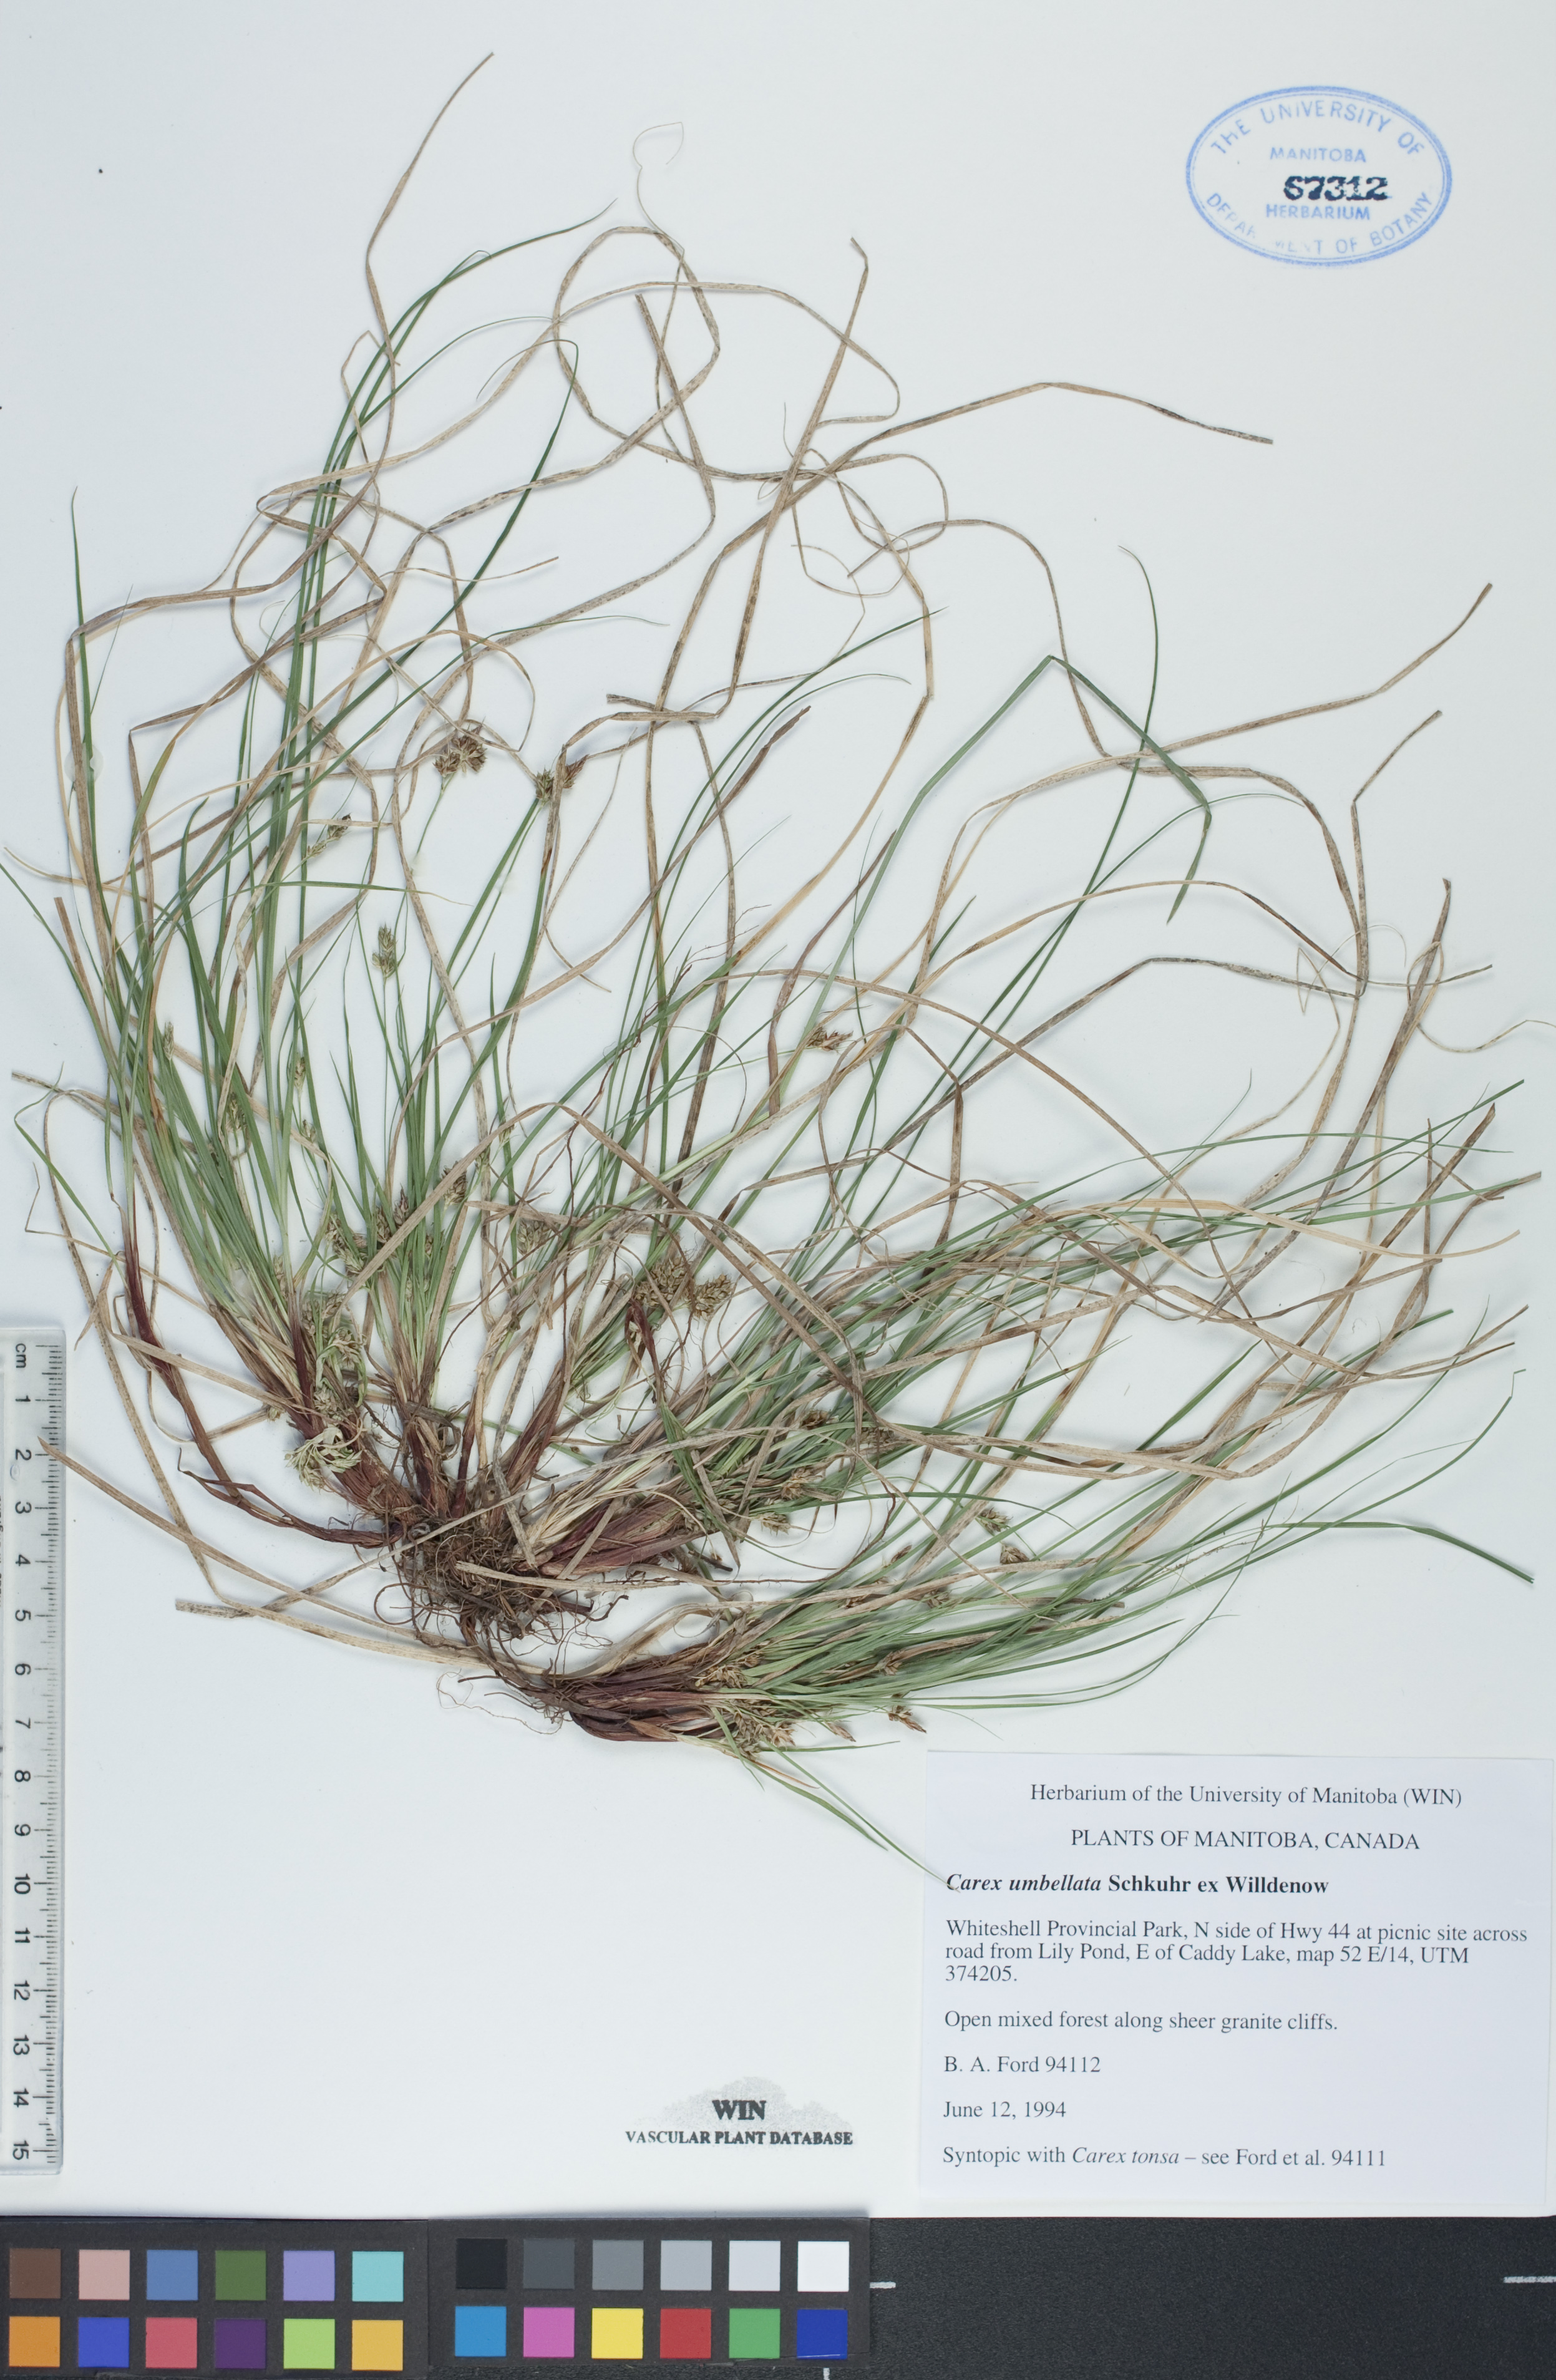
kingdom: Plantae
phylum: Tracheophyta
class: Liliopsida
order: Poales
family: Cyperaceae
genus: Carex
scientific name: Carex umbellata
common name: Early oak sedge
